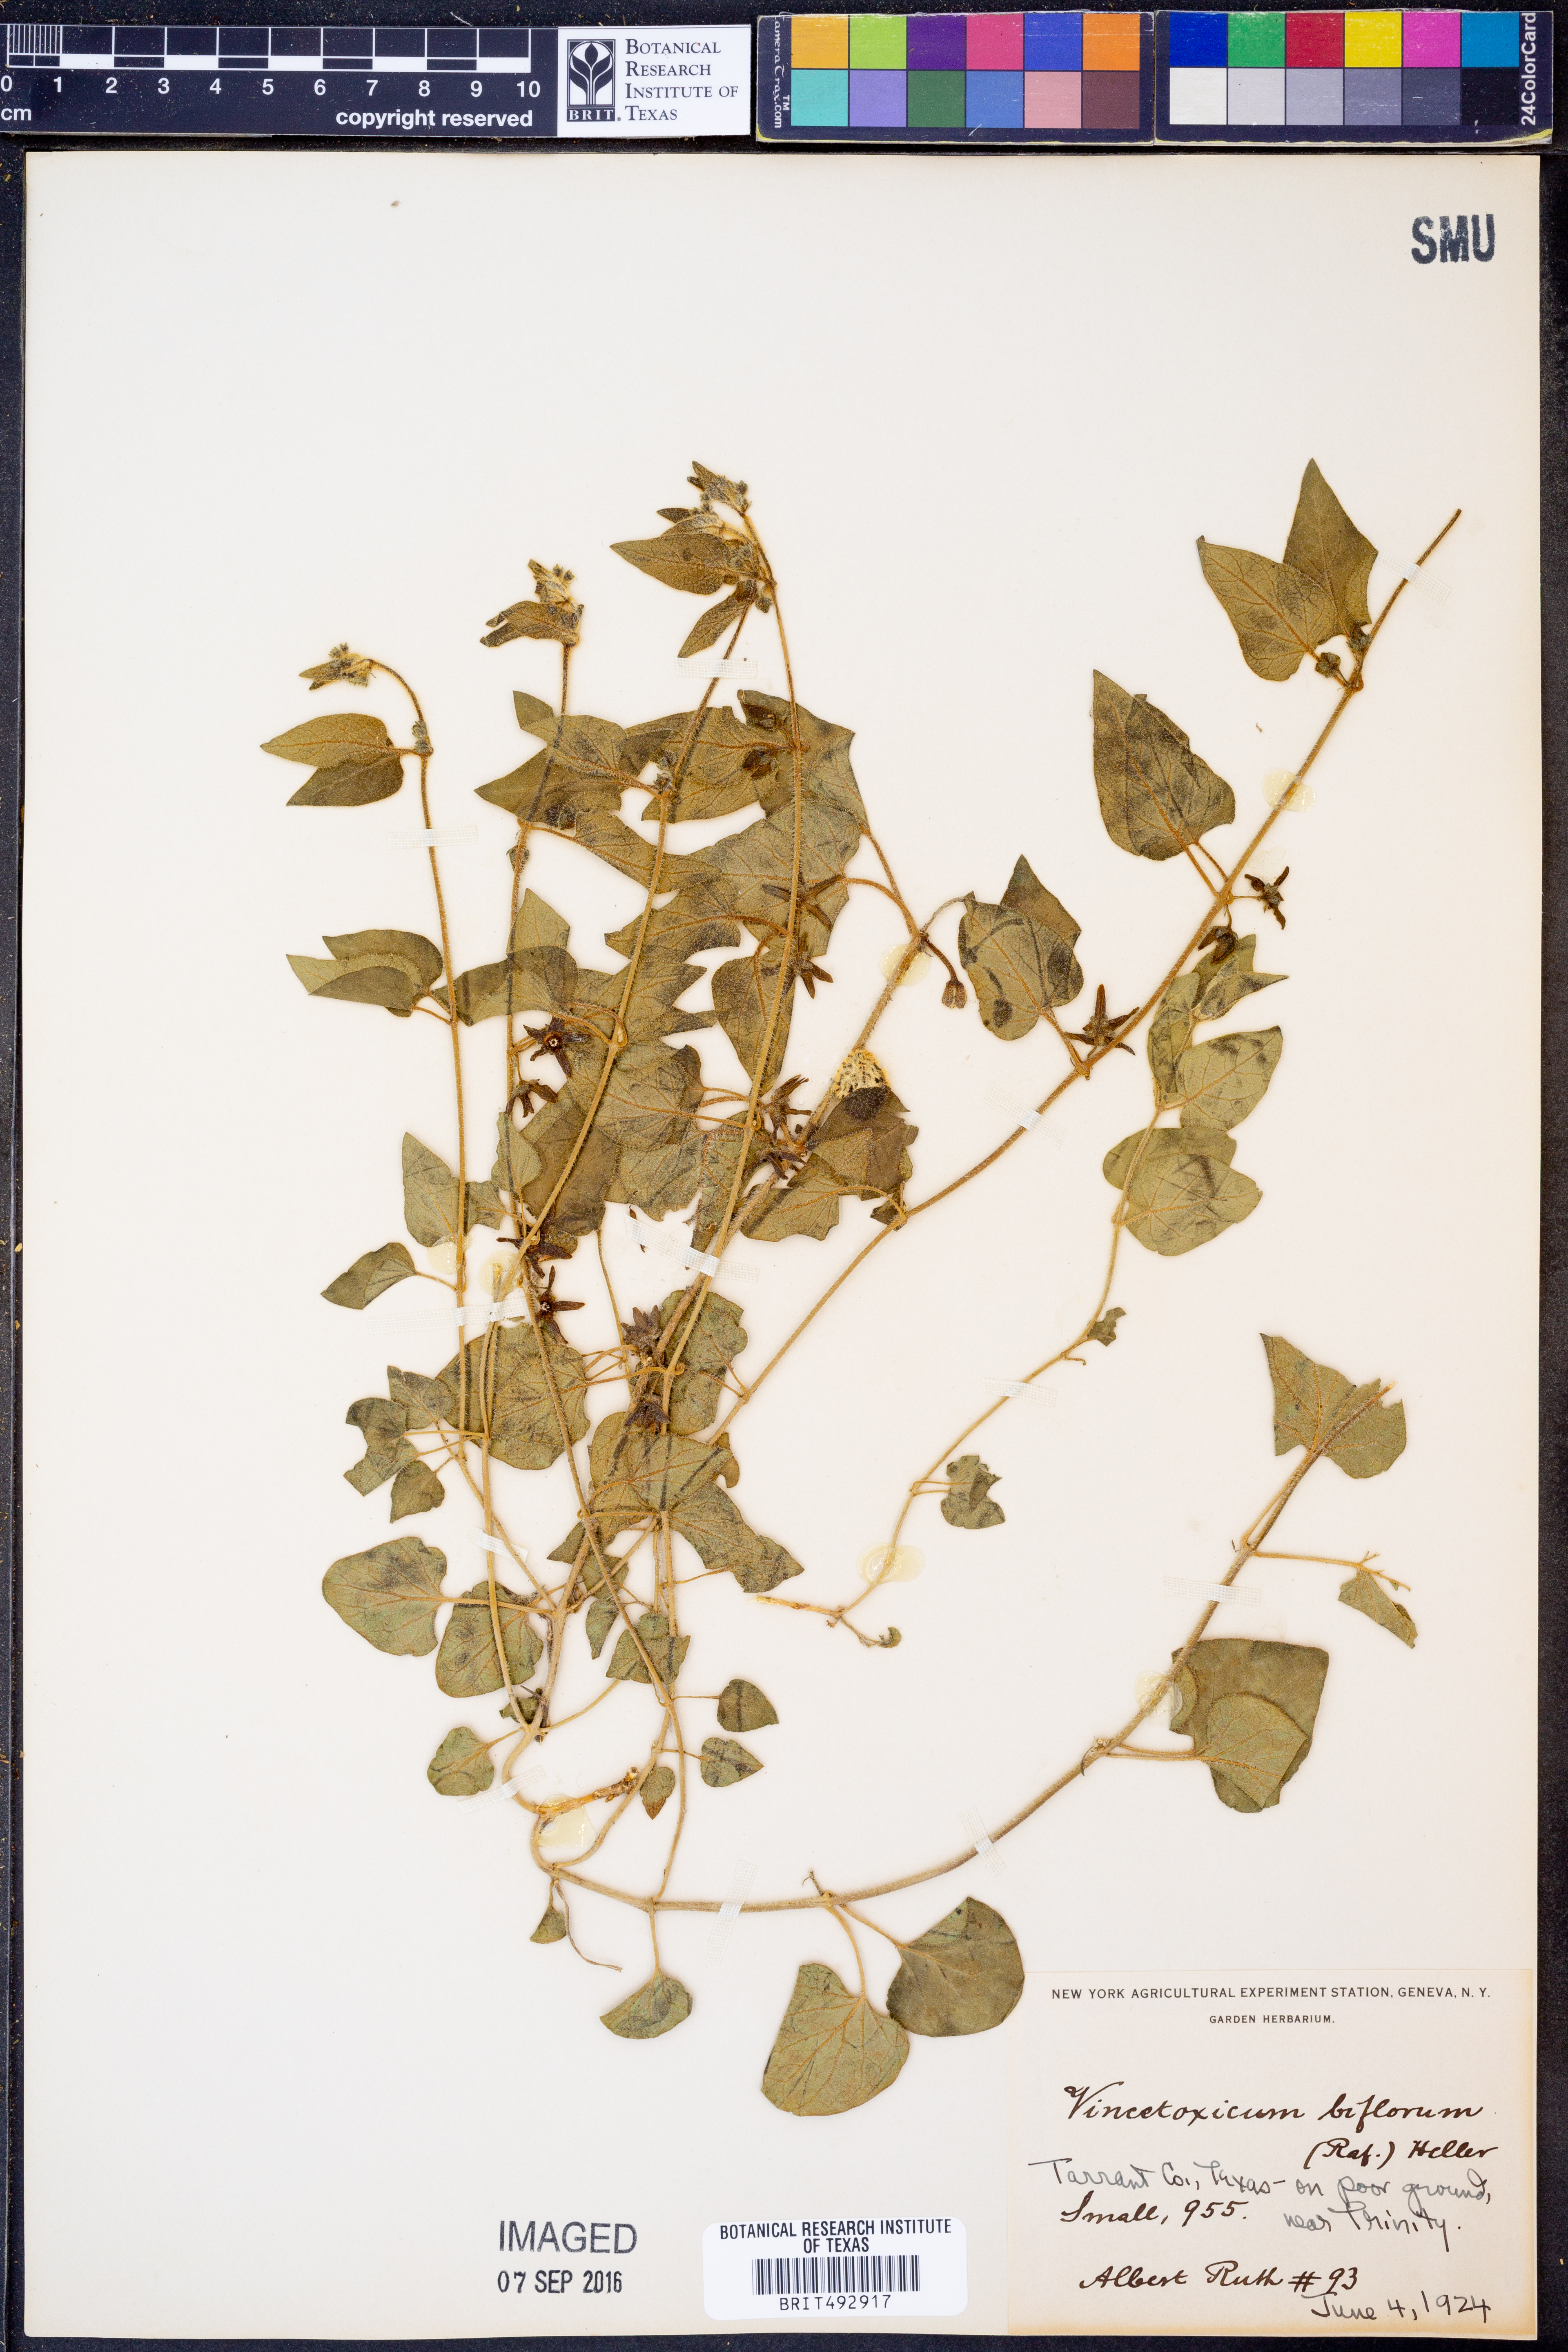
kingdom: Plantae
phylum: Tracheophyta
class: Magnoliopsida
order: Gentianales
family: Apocynaceae
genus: Chthamalia
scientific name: Chthamalia biflora
